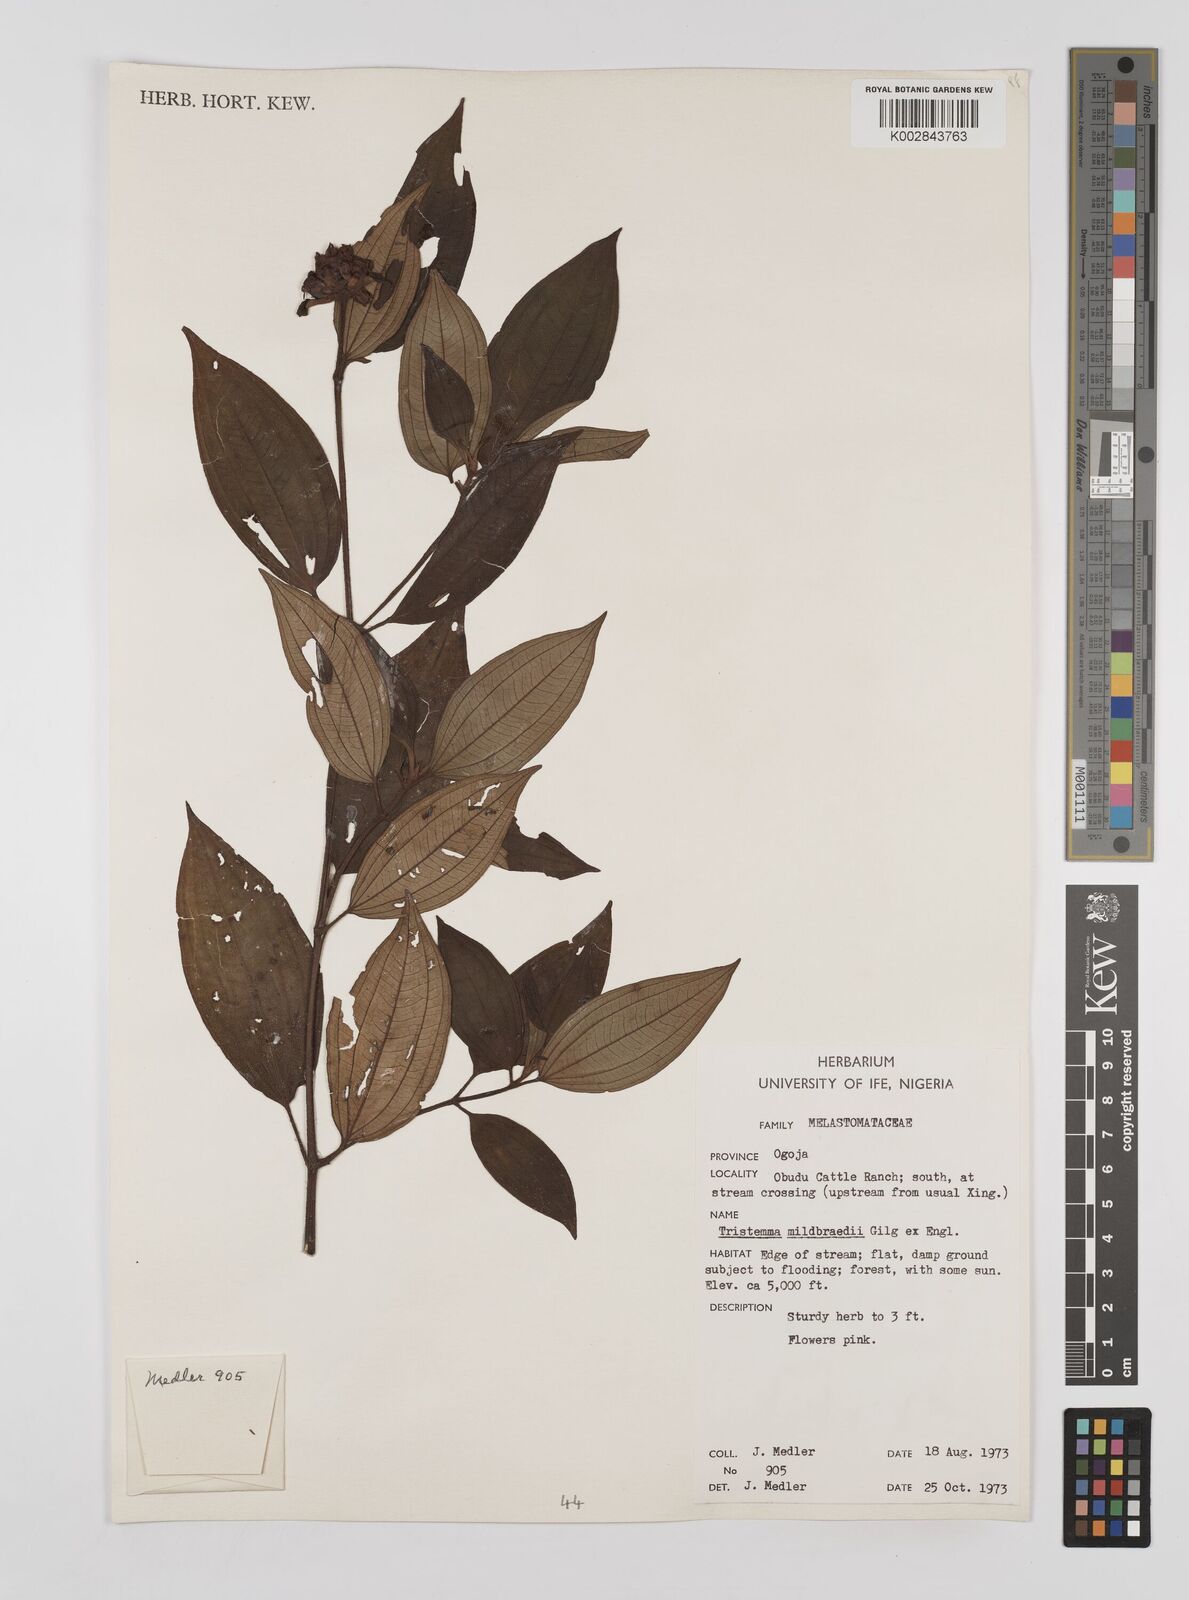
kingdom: Plantae
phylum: Tracheophyta
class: Magnoliopsida
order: Myrtales
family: Melastomataceae
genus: Tristemma
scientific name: Tristemma mauritianum
